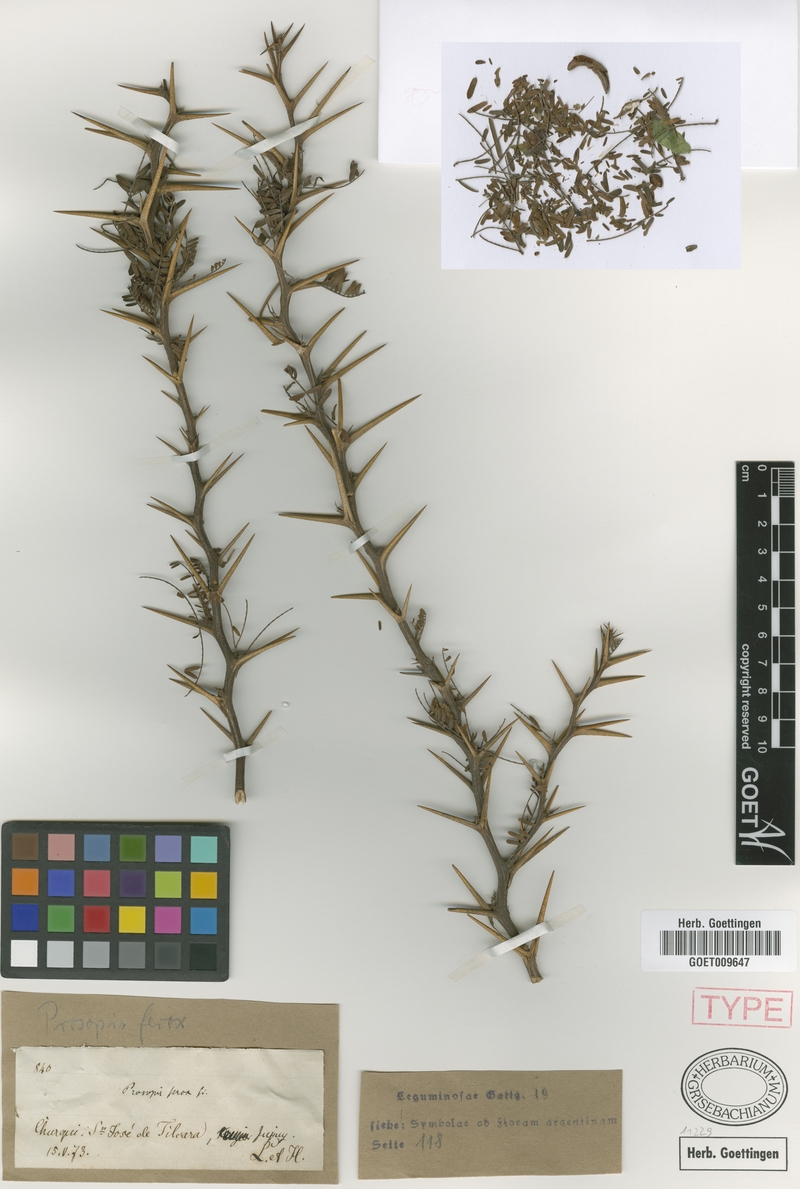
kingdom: Plantae
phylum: Tracheophyta
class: Magnoliopsida
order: Fabales
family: Fabaceae
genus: Prosopis
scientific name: Prosopis ferox
